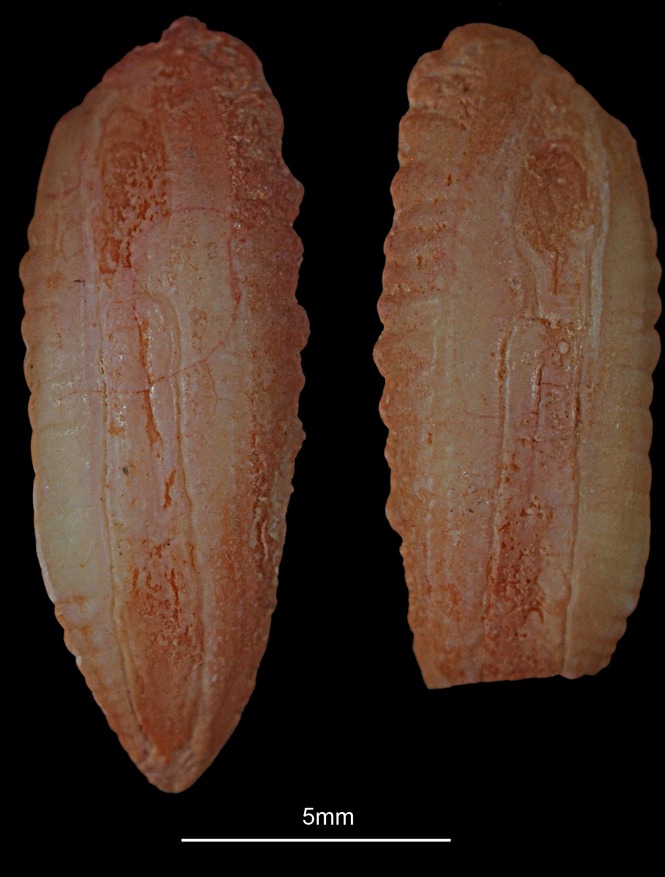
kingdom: Animalia
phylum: Chordata
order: Gadiformes
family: Gadidae
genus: Melanogrammus
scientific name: Melanogrammus aeglefinus
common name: Haddock
